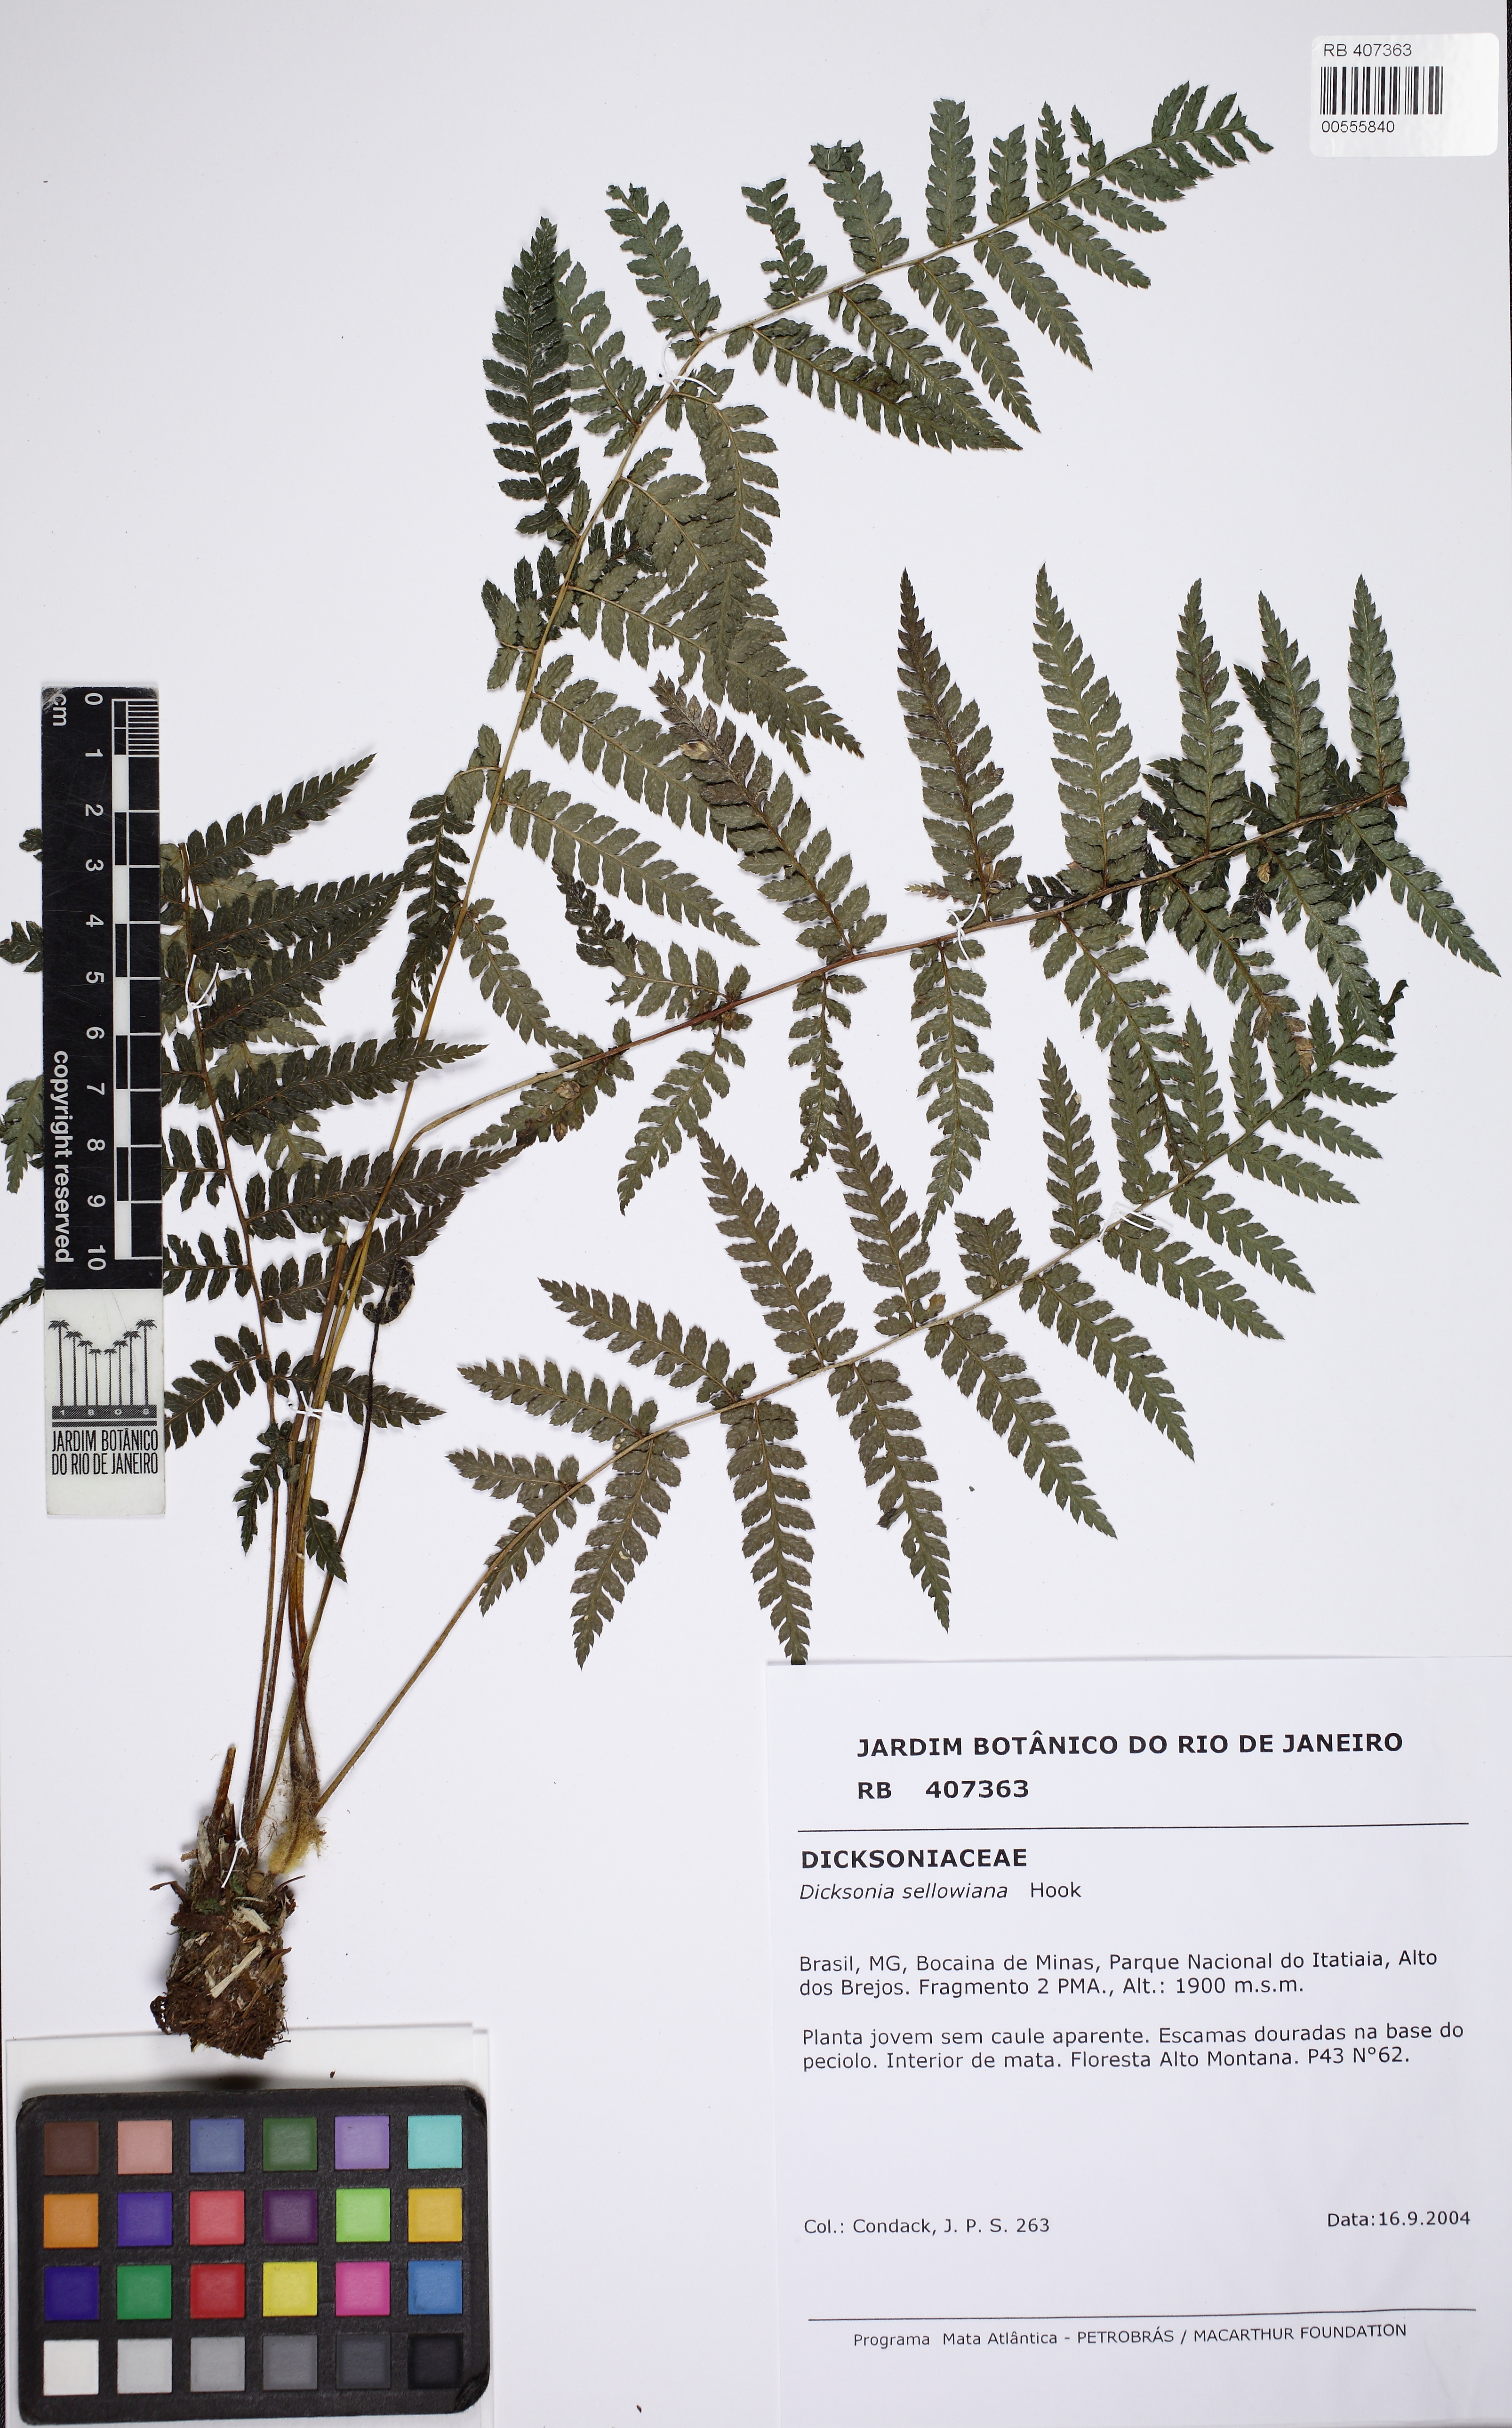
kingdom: Plantae
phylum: Tracheophyta
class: Polypodiopsida
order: Cyatheales
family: Dicksoniaceae
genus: Dicksonia
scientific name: Dicksonia sellowiana
